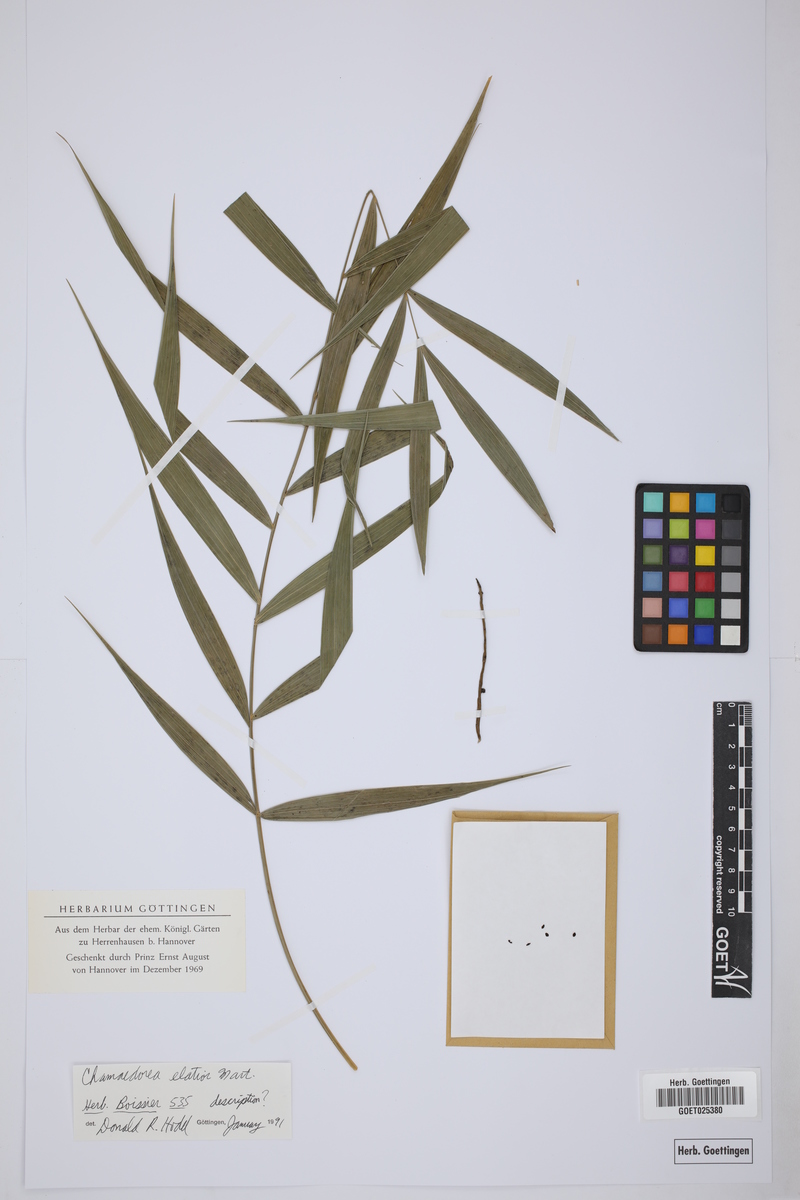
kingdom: Plantae
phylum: Tracheophyta
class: Liliopsida
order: Arecales
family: Arecaceae
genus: Chamaedorea
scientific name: Chamaedorea elatior
